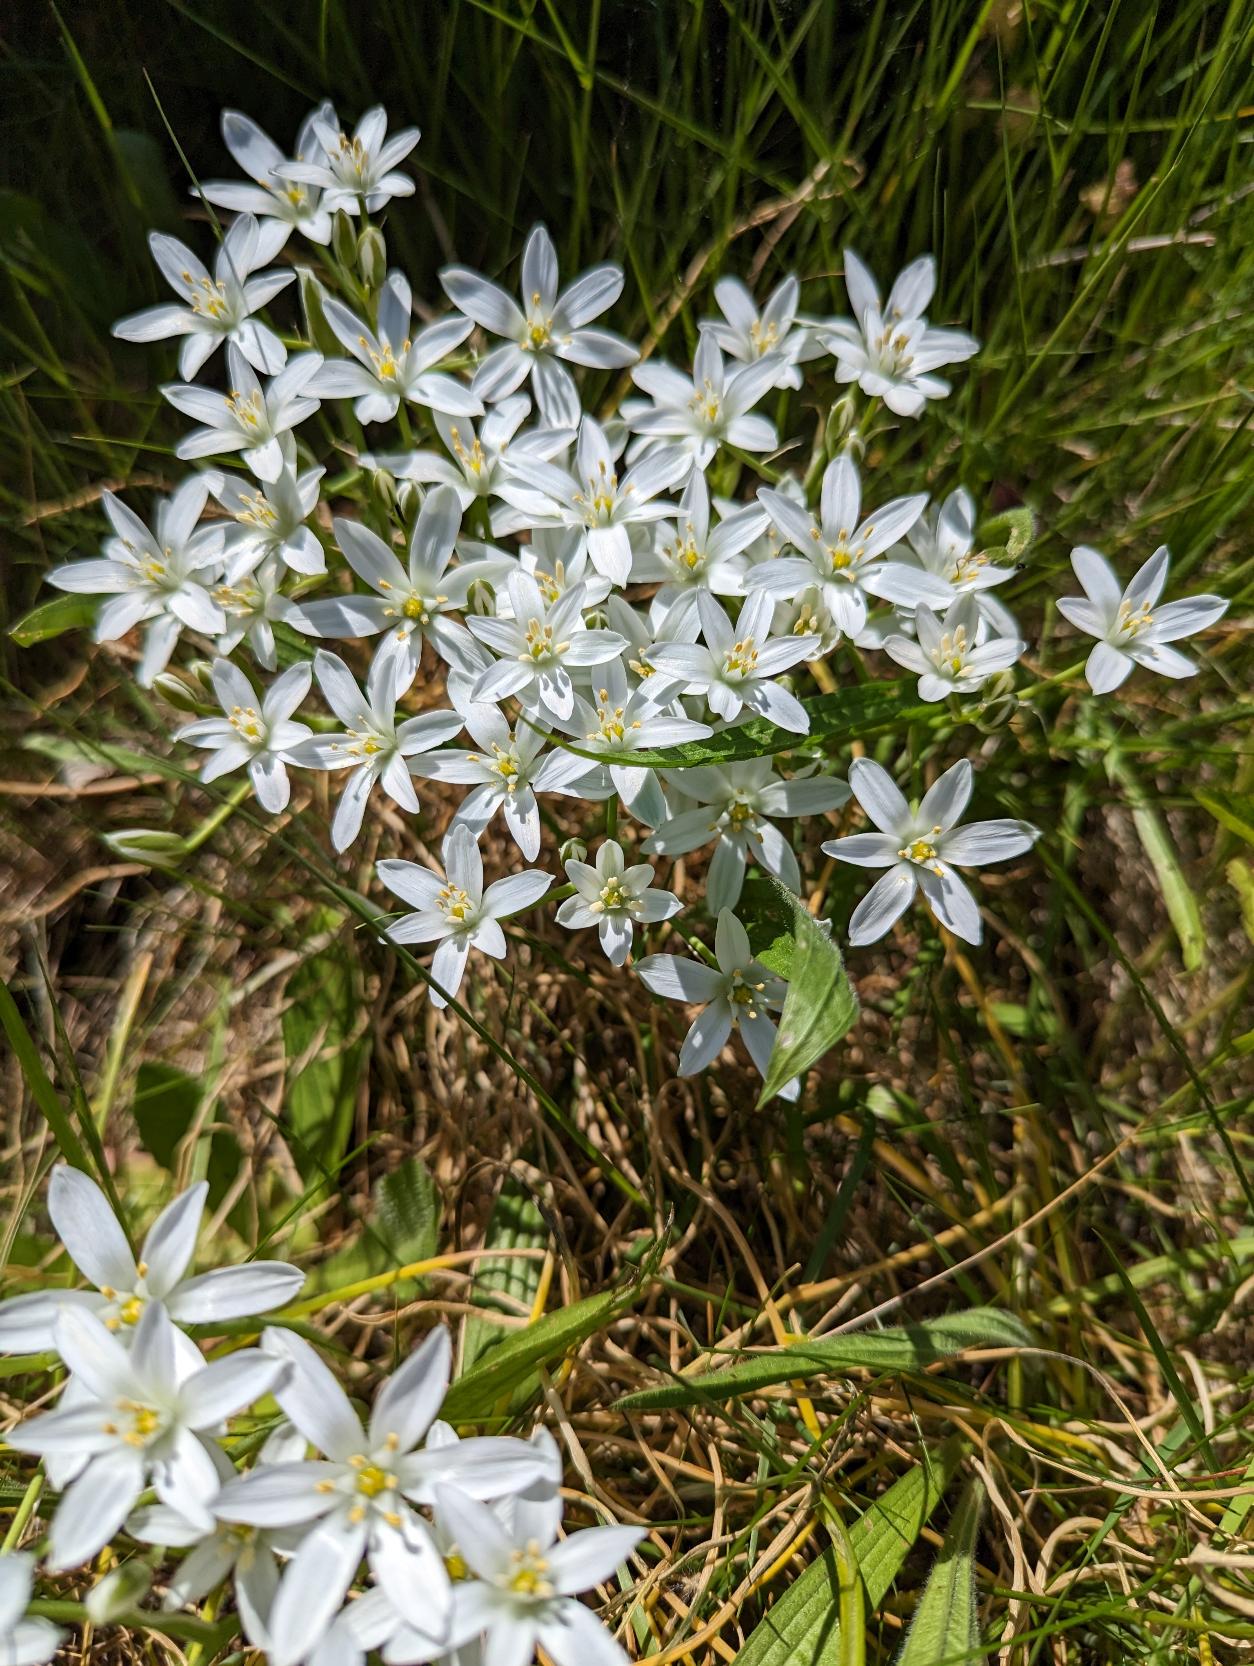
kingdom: Plantae
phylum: Tracheophyta
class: Liliopsida
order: Asparagales
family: Asparagaceae
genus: Ornithogalum
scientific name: Ornithogalum umbellatum
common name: Kost-fuglemælk
